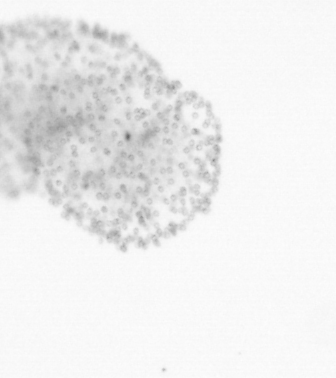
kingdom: Chromista
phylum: Ochrophyta
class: Bacillariophyceae
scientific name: Bacillariophyceae
